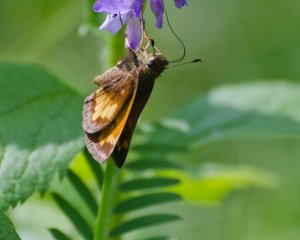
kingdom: Animalia
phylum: Arthropoda
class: Insecta
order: Lepidoptera
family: Hesperiidae
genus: Lon
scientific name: Lon hobomok
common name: Hobomok Skipper
